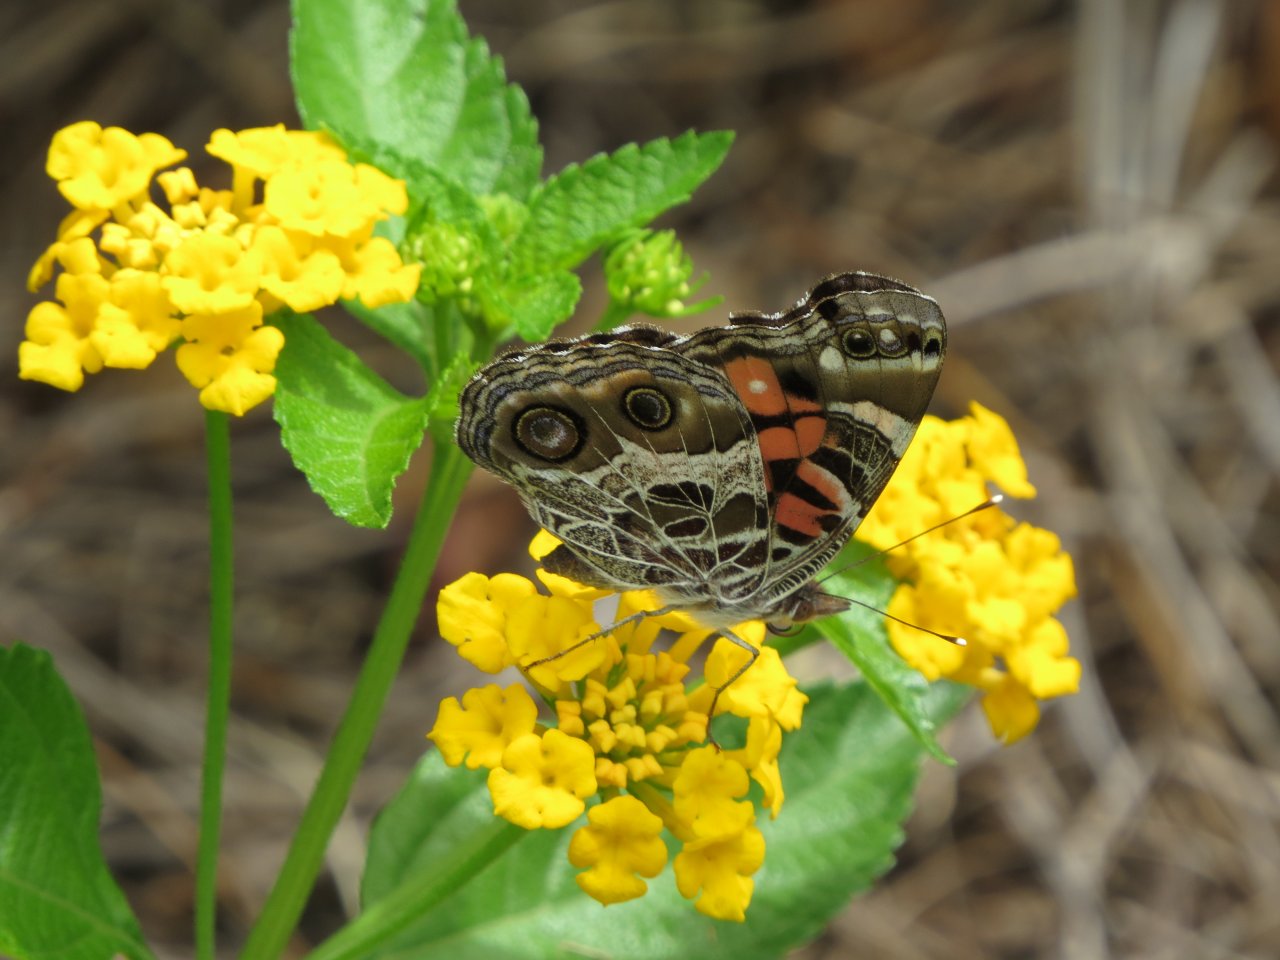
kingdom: Animalia
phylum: Arthropoda
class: Insecta
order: Lepidoptera
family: Nymphalidae
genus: Vanessa
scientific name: Vanessa virginiensis
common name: American Lady
